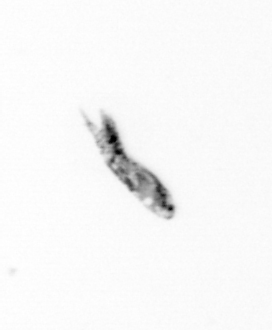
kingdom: Animalia
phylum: Arthropoda
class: Copepoda
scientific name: Copepoda
